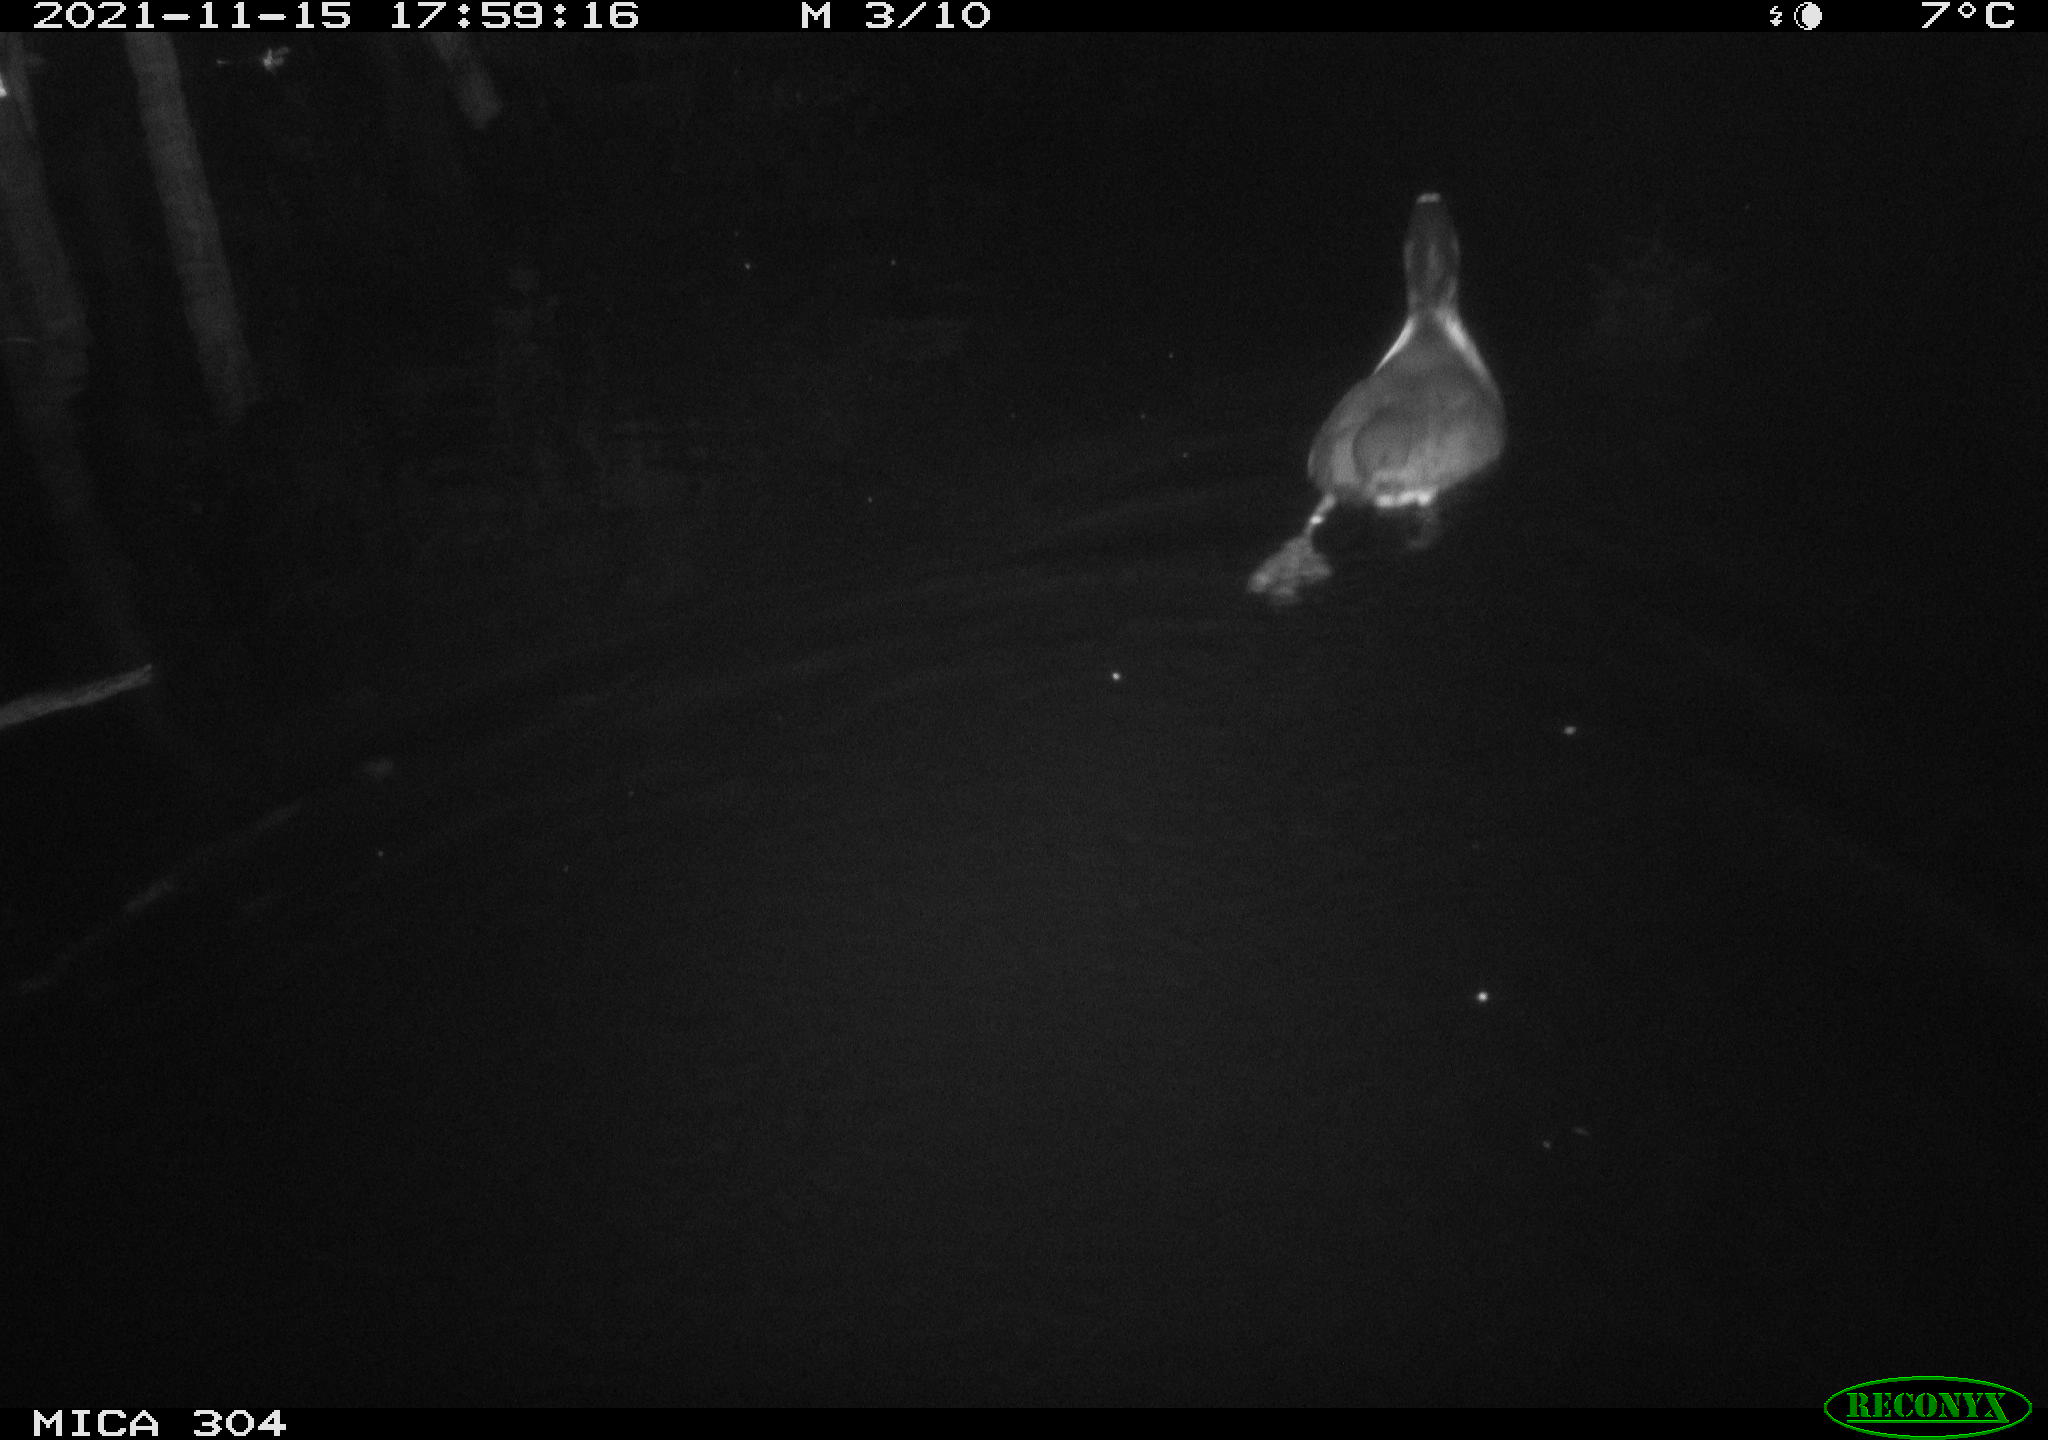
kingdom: Animalia
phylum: Chordata
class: Aves
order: Gruiformes
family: Rallidae
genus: Fulica
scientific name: Fulica atra
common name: Eurasian coot
